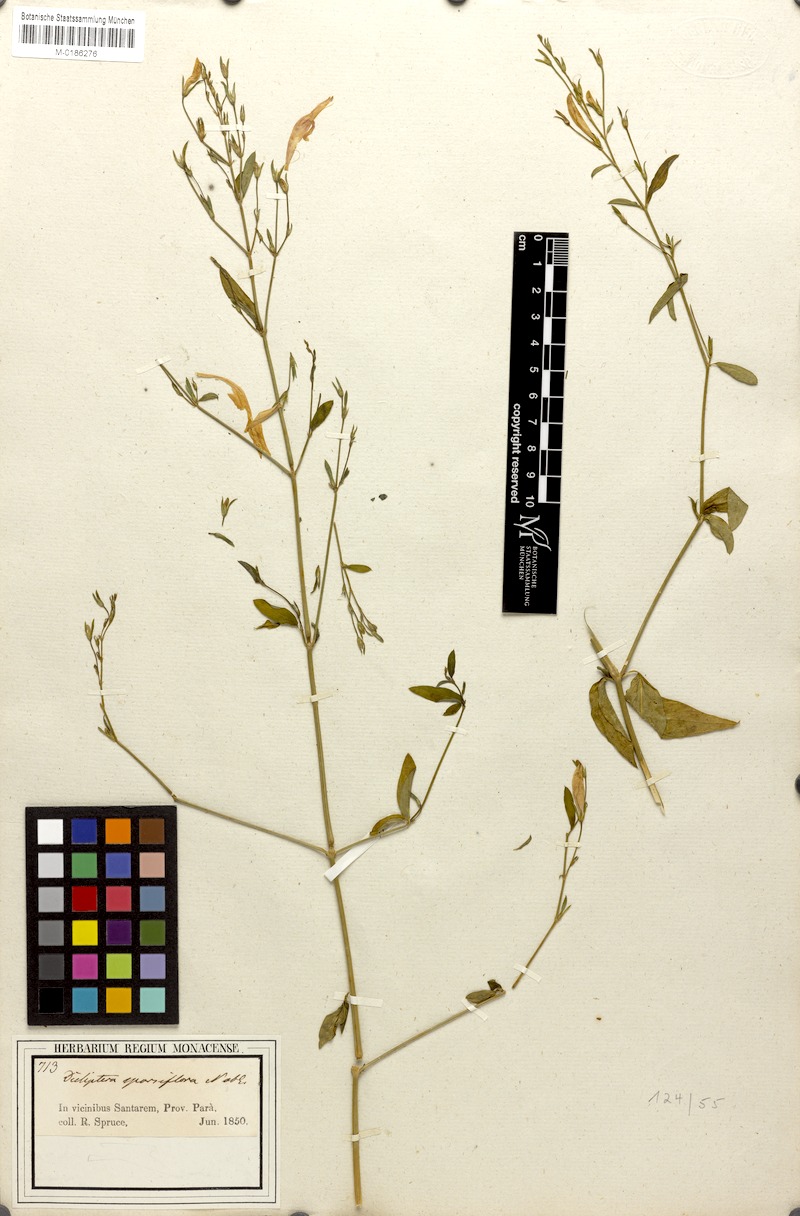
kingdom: Plantae
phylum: Tracheophyta
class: Magnoliopsida
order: Lamiales
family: Acanthaceae
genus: Dicliptera
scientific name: Dicliptera sparsiflora
